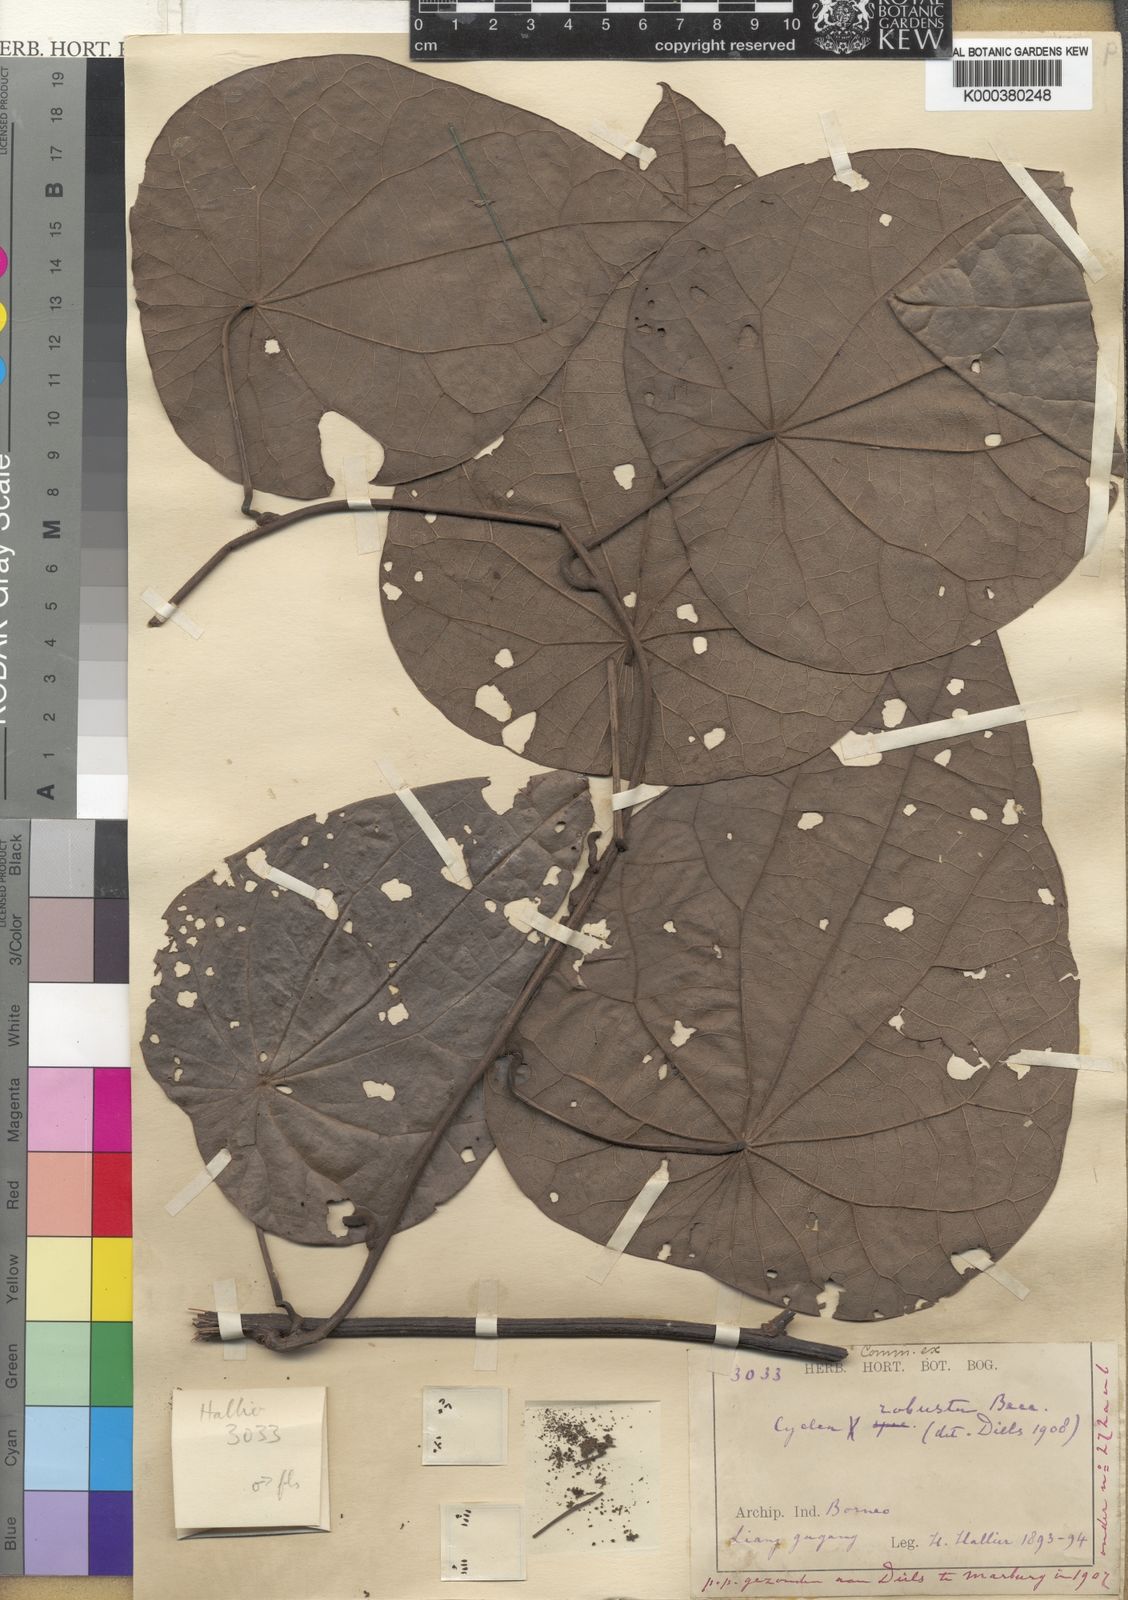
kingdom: Plantae
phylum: Tracheophyta
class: Magnoliopsida
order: Ranunculales
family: Menispermaceae
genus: Cyclea
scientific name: Cyclea robusta
